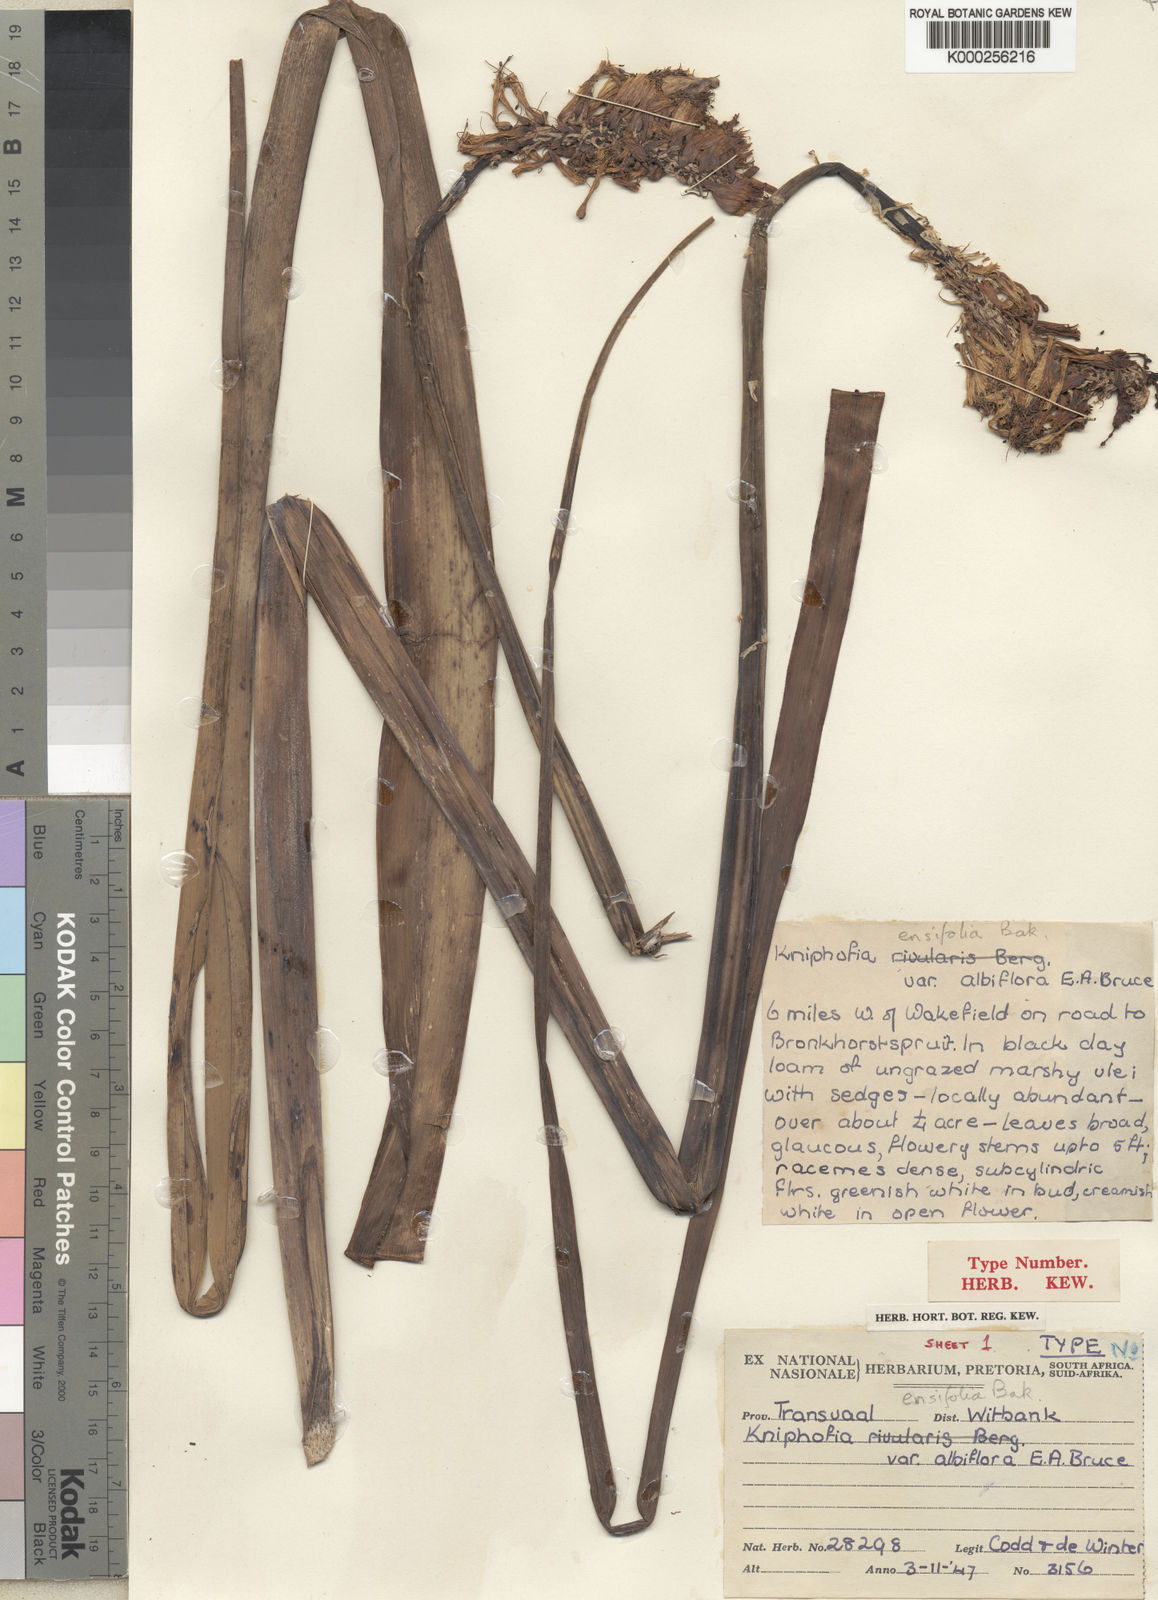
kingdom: Plantae
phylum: Tracheophyta
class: Liliopsida
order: Asparagales
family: Asphodelaceae
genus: Kniphofia
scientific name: Kniphofia ensifolia
